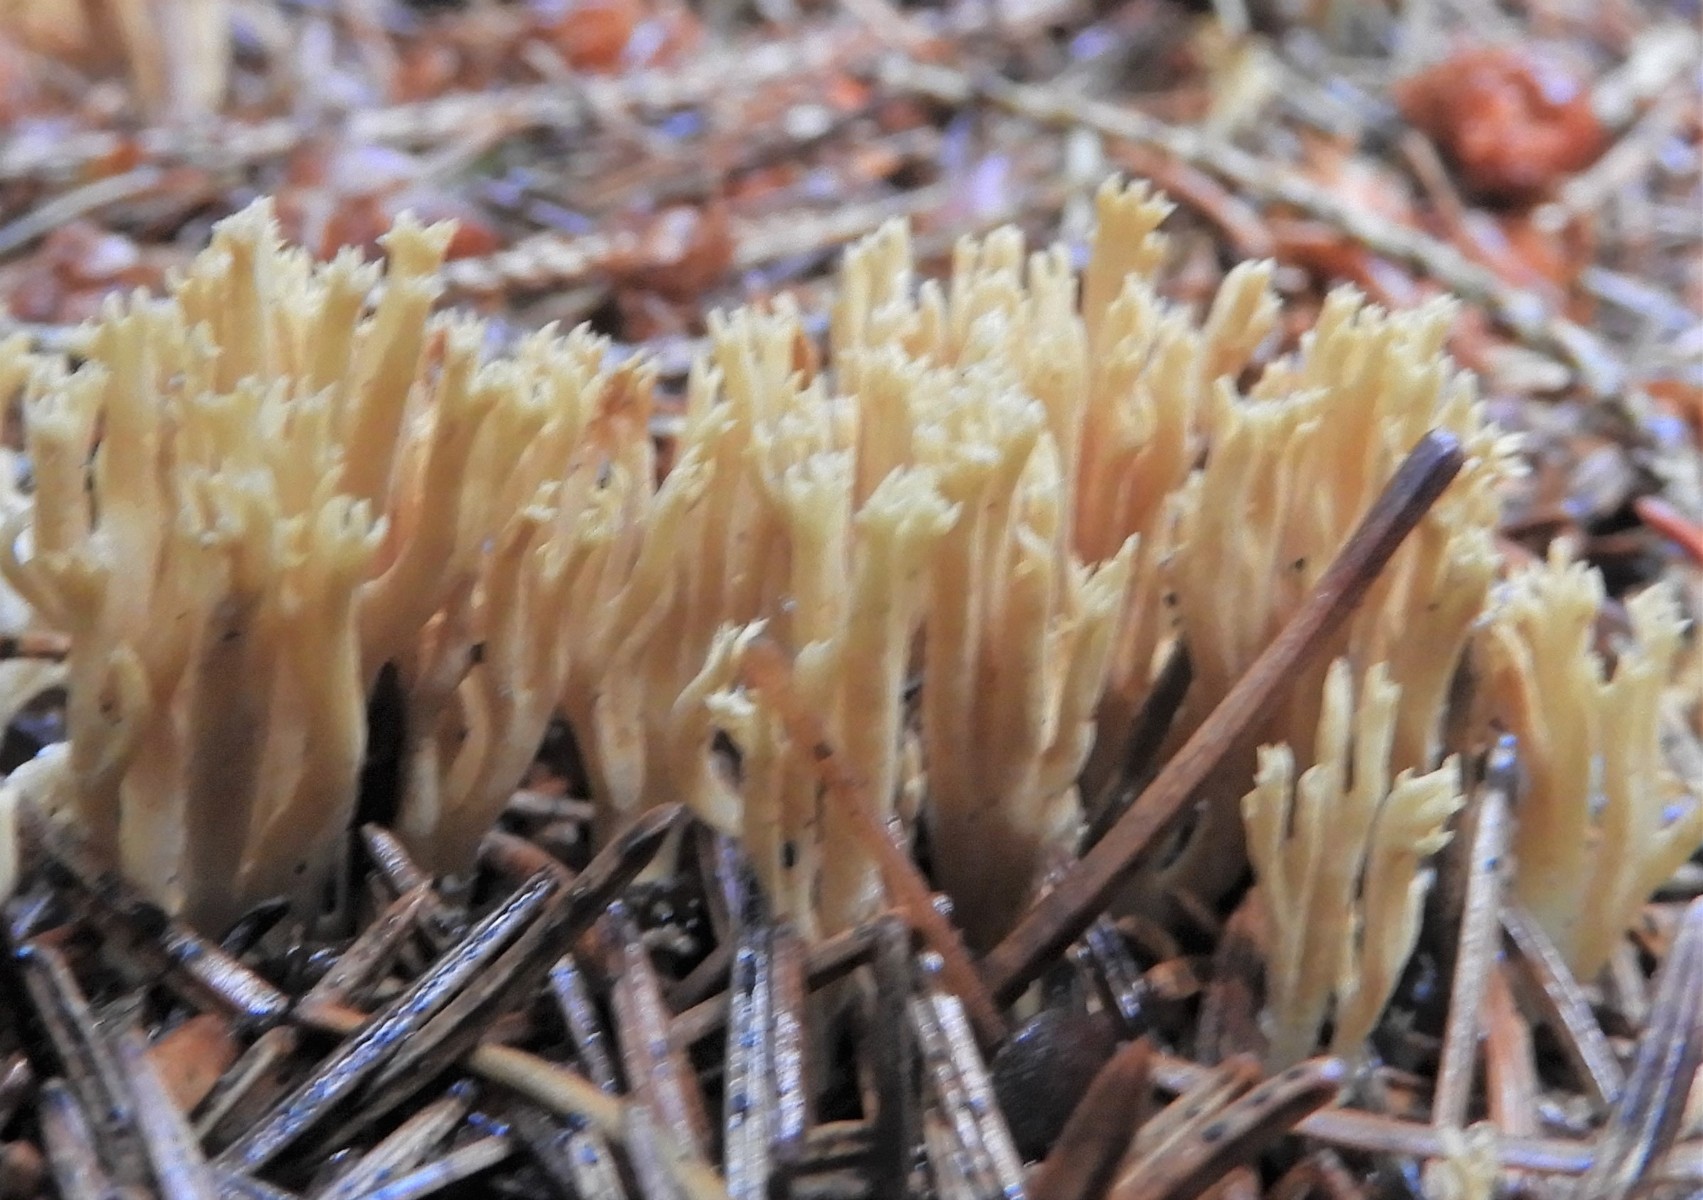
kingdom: Fungi
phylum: Basidiomycota
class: Agaricomycetes
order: Gomphales
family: Gomphaceae
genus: Phaeoclavulina
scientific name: Phaeoclavulina eumorpha
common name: gran-koralsvamp
